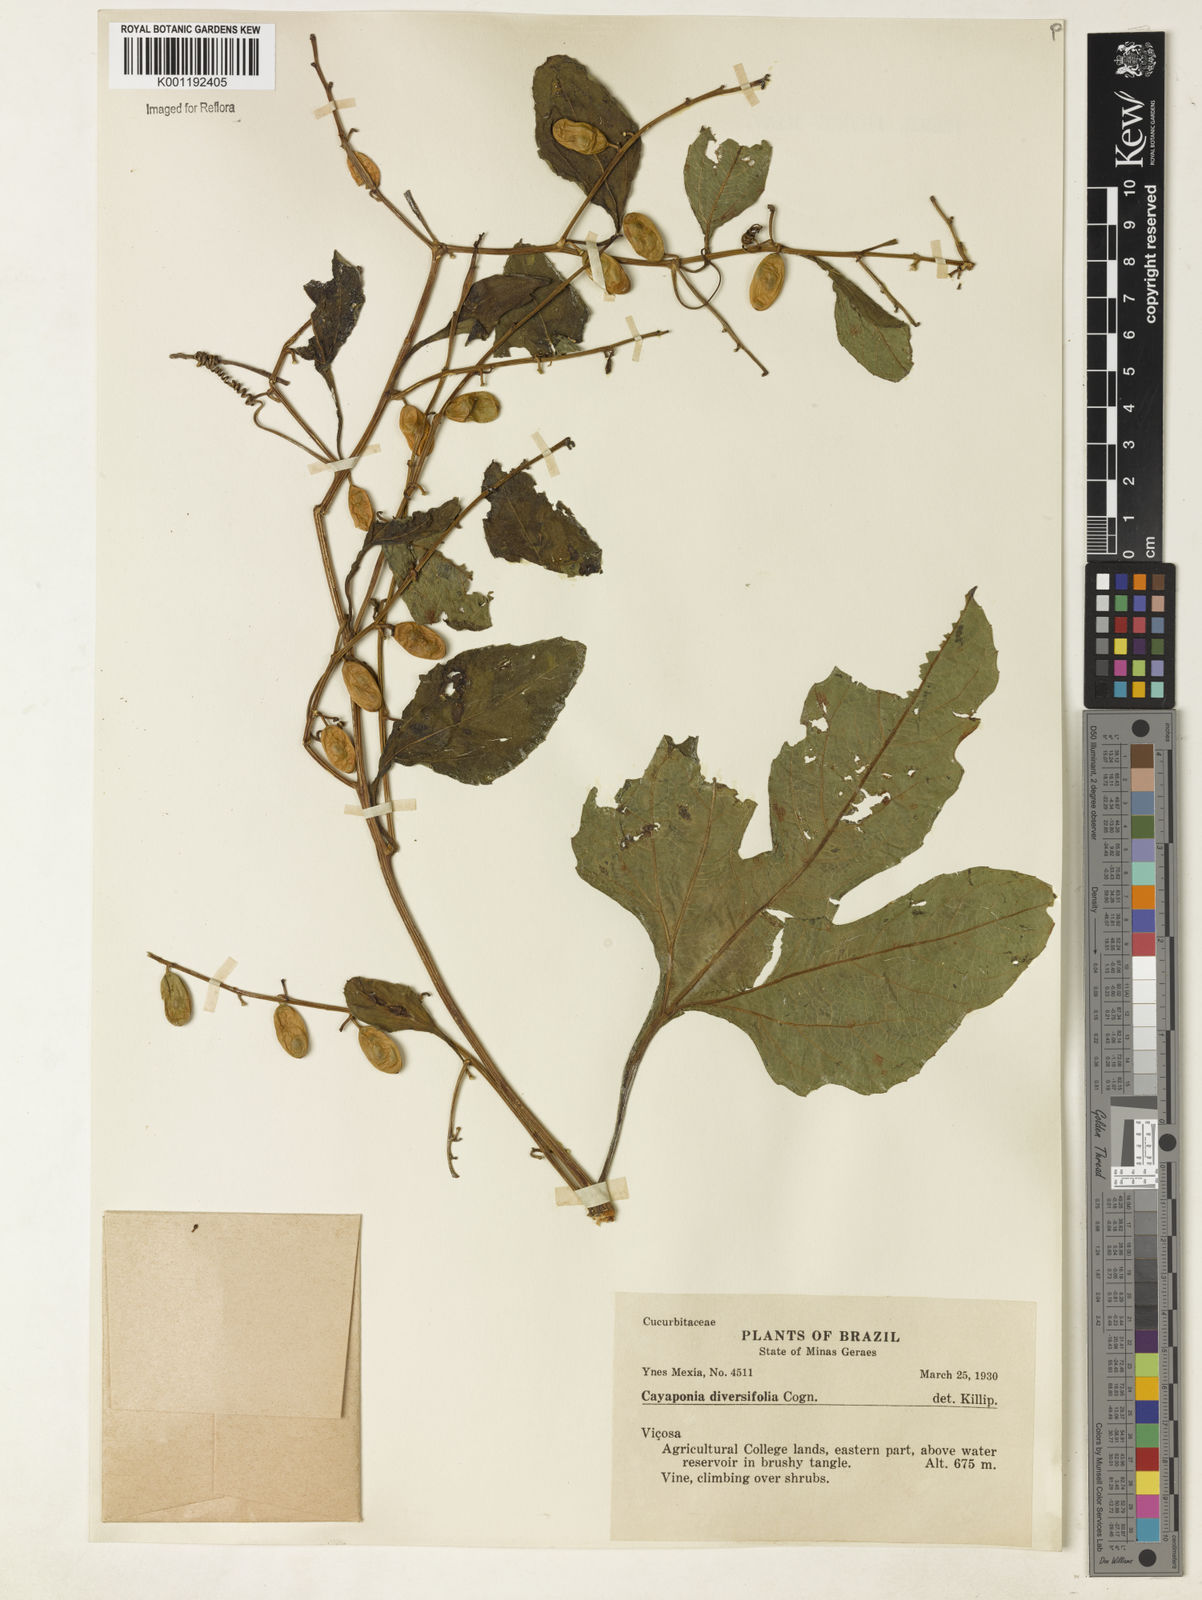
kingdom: Plantae
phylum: Tracheophyta
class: Magnoliopsida
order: Cucurbitales
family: Cucurbitaceae
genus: Cayaponia
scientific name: Cayaponia tayuya
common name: Tayuya
